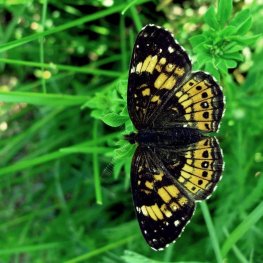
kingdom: Animalia
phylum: Arthropoda
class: Insecta
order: Lepidoptera
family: Nymphalidae
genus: Chlosyne
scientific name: Chlosyne nycteis
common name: Silvery Checkerspot
